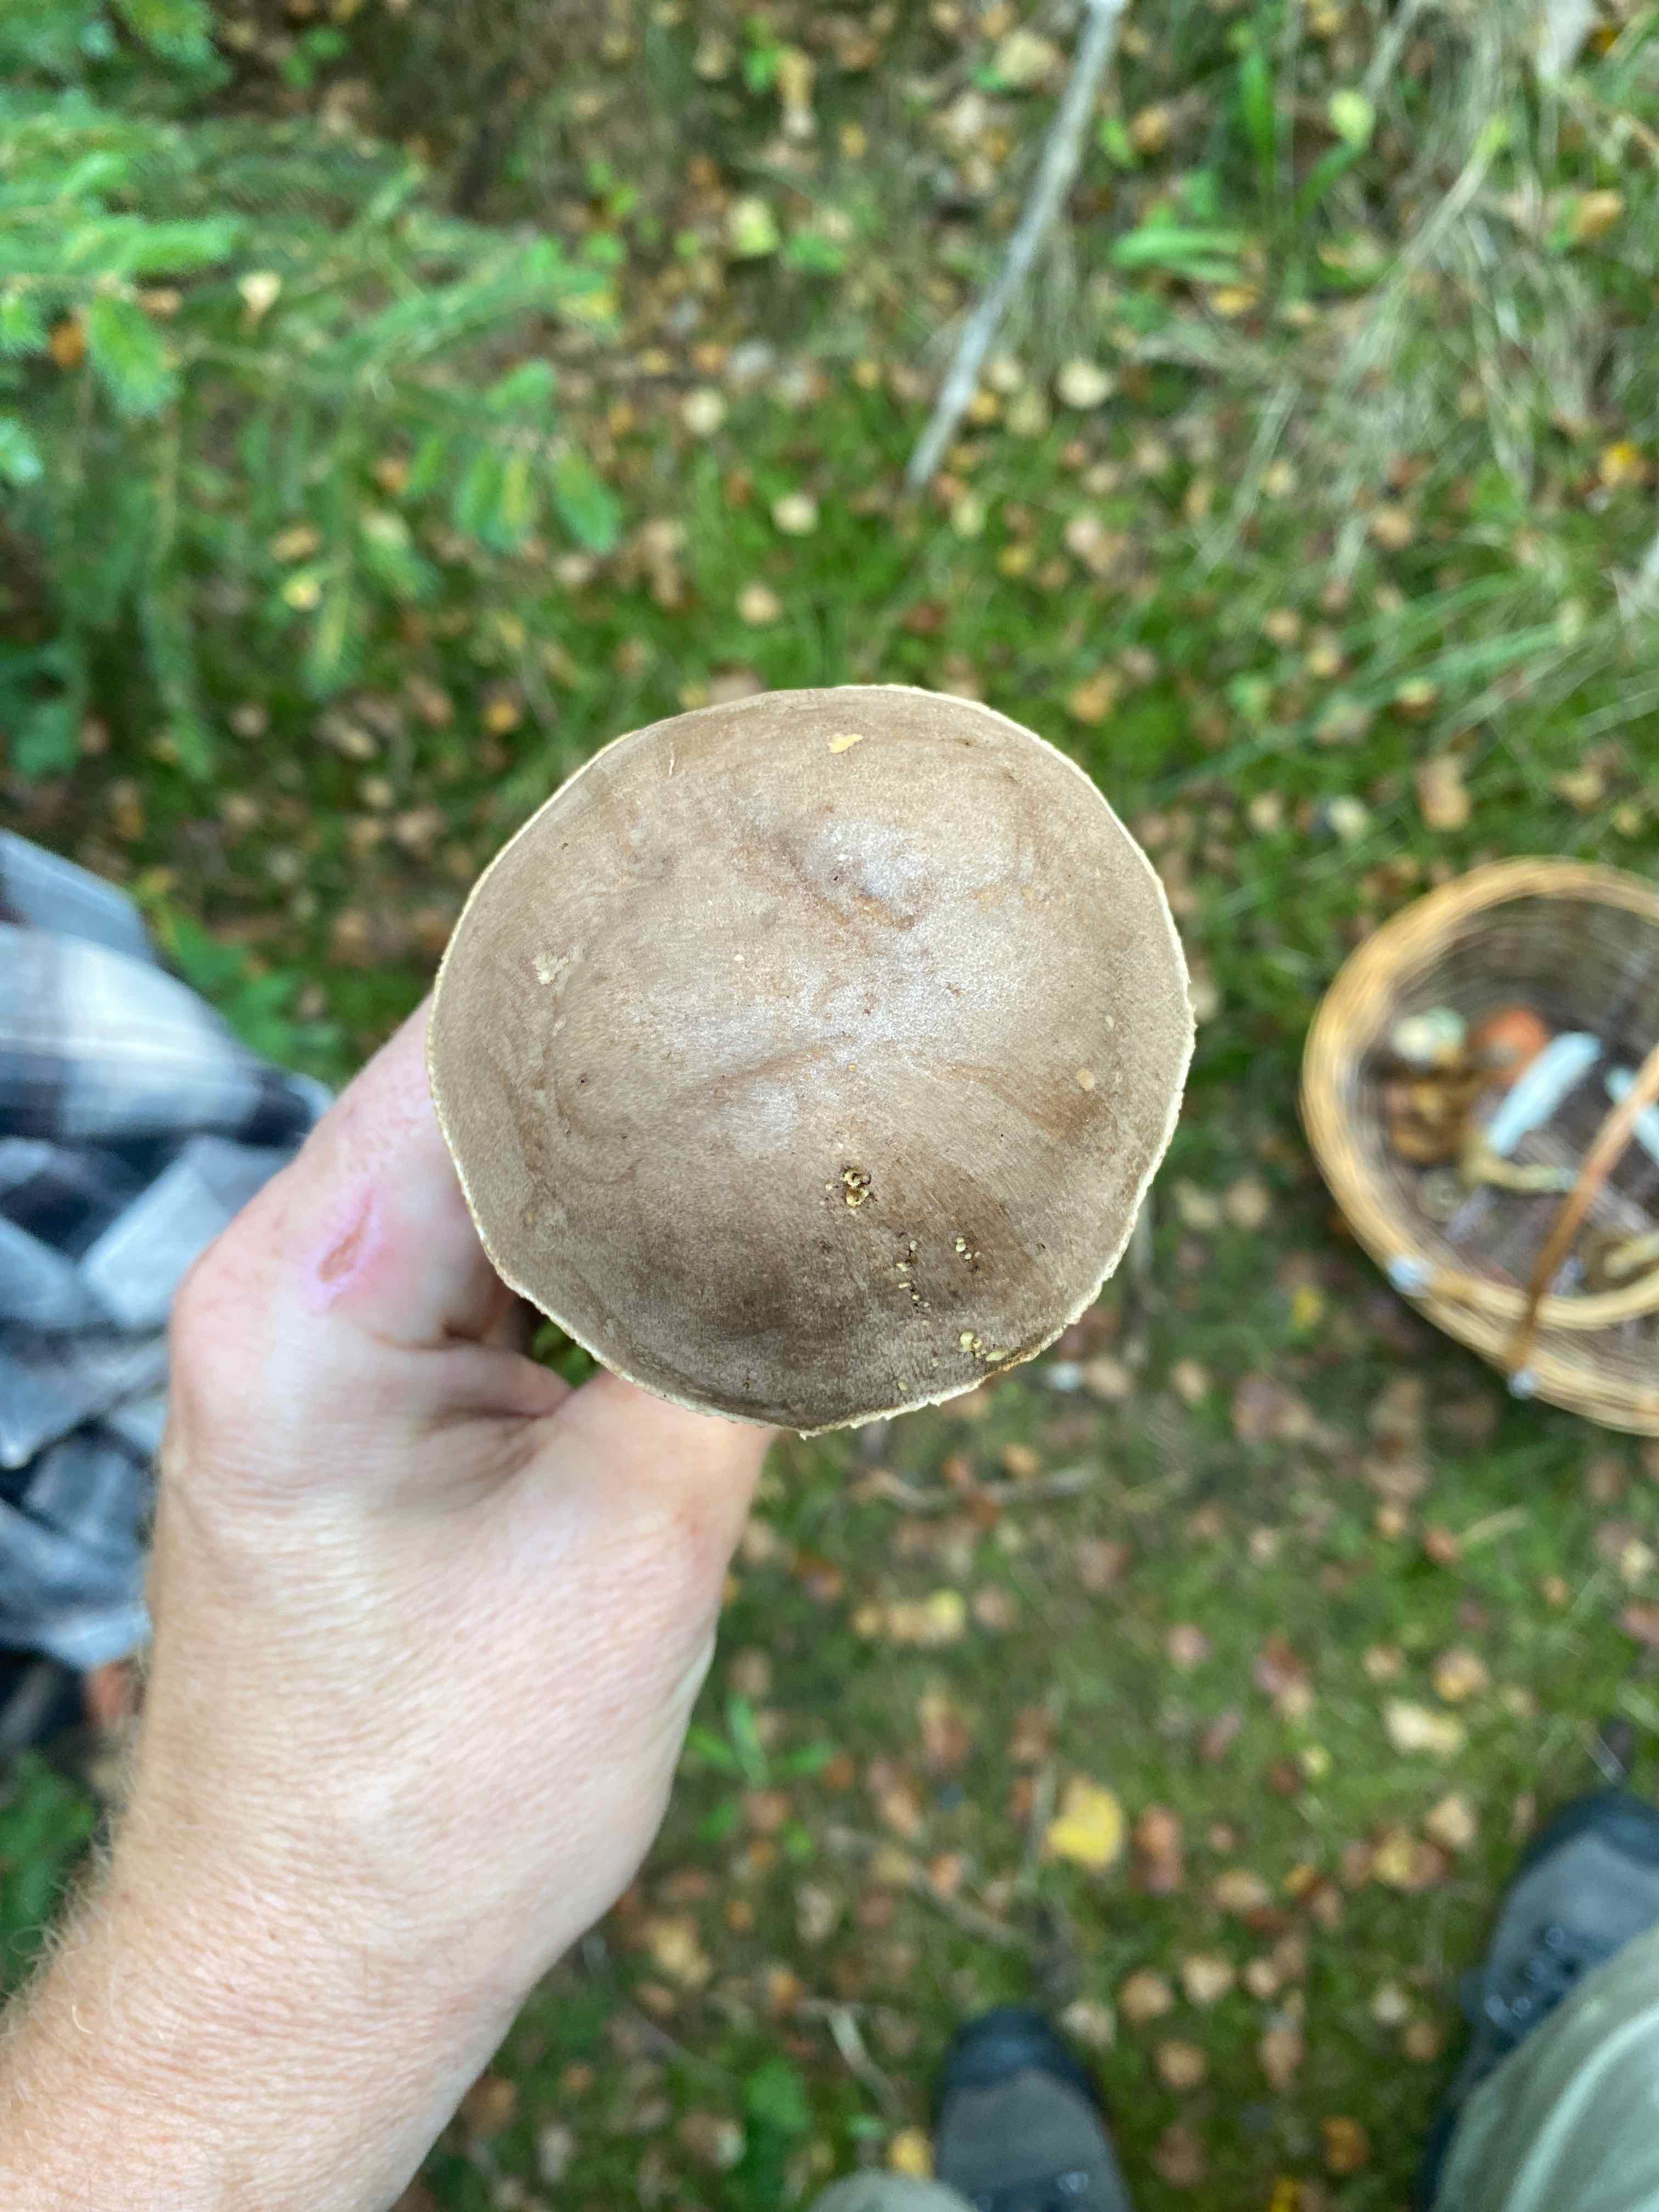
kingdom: Fungi
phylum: Basidiomycota
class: Agaricomycetes
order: Boletales
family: Boletaceae
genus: Leccinum
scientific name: Leccinum
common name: skælrørhat
